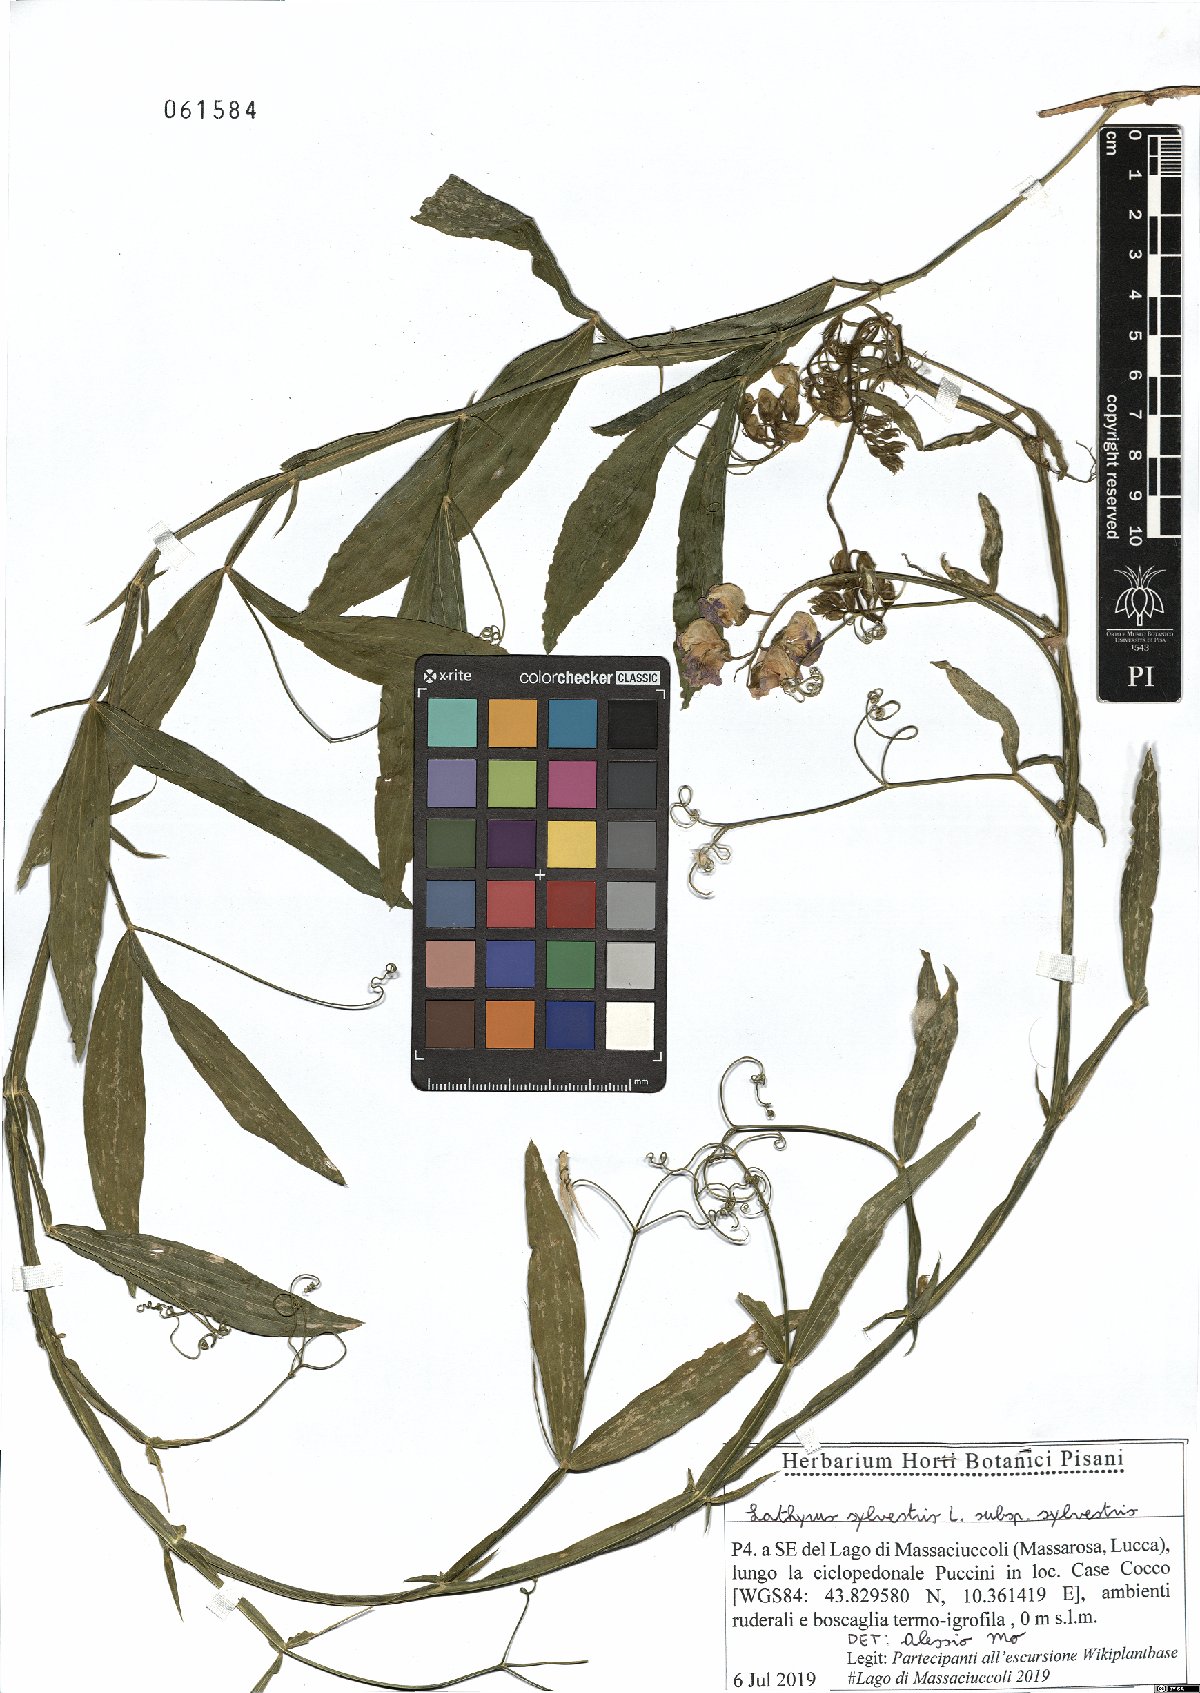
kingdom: Plantae
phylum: Tracheophyta
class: Magnoliopsida
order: Fabales
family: Fabaceae
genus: Lathyrus
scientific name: Lathyrus sylvestris
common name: Flat pea
